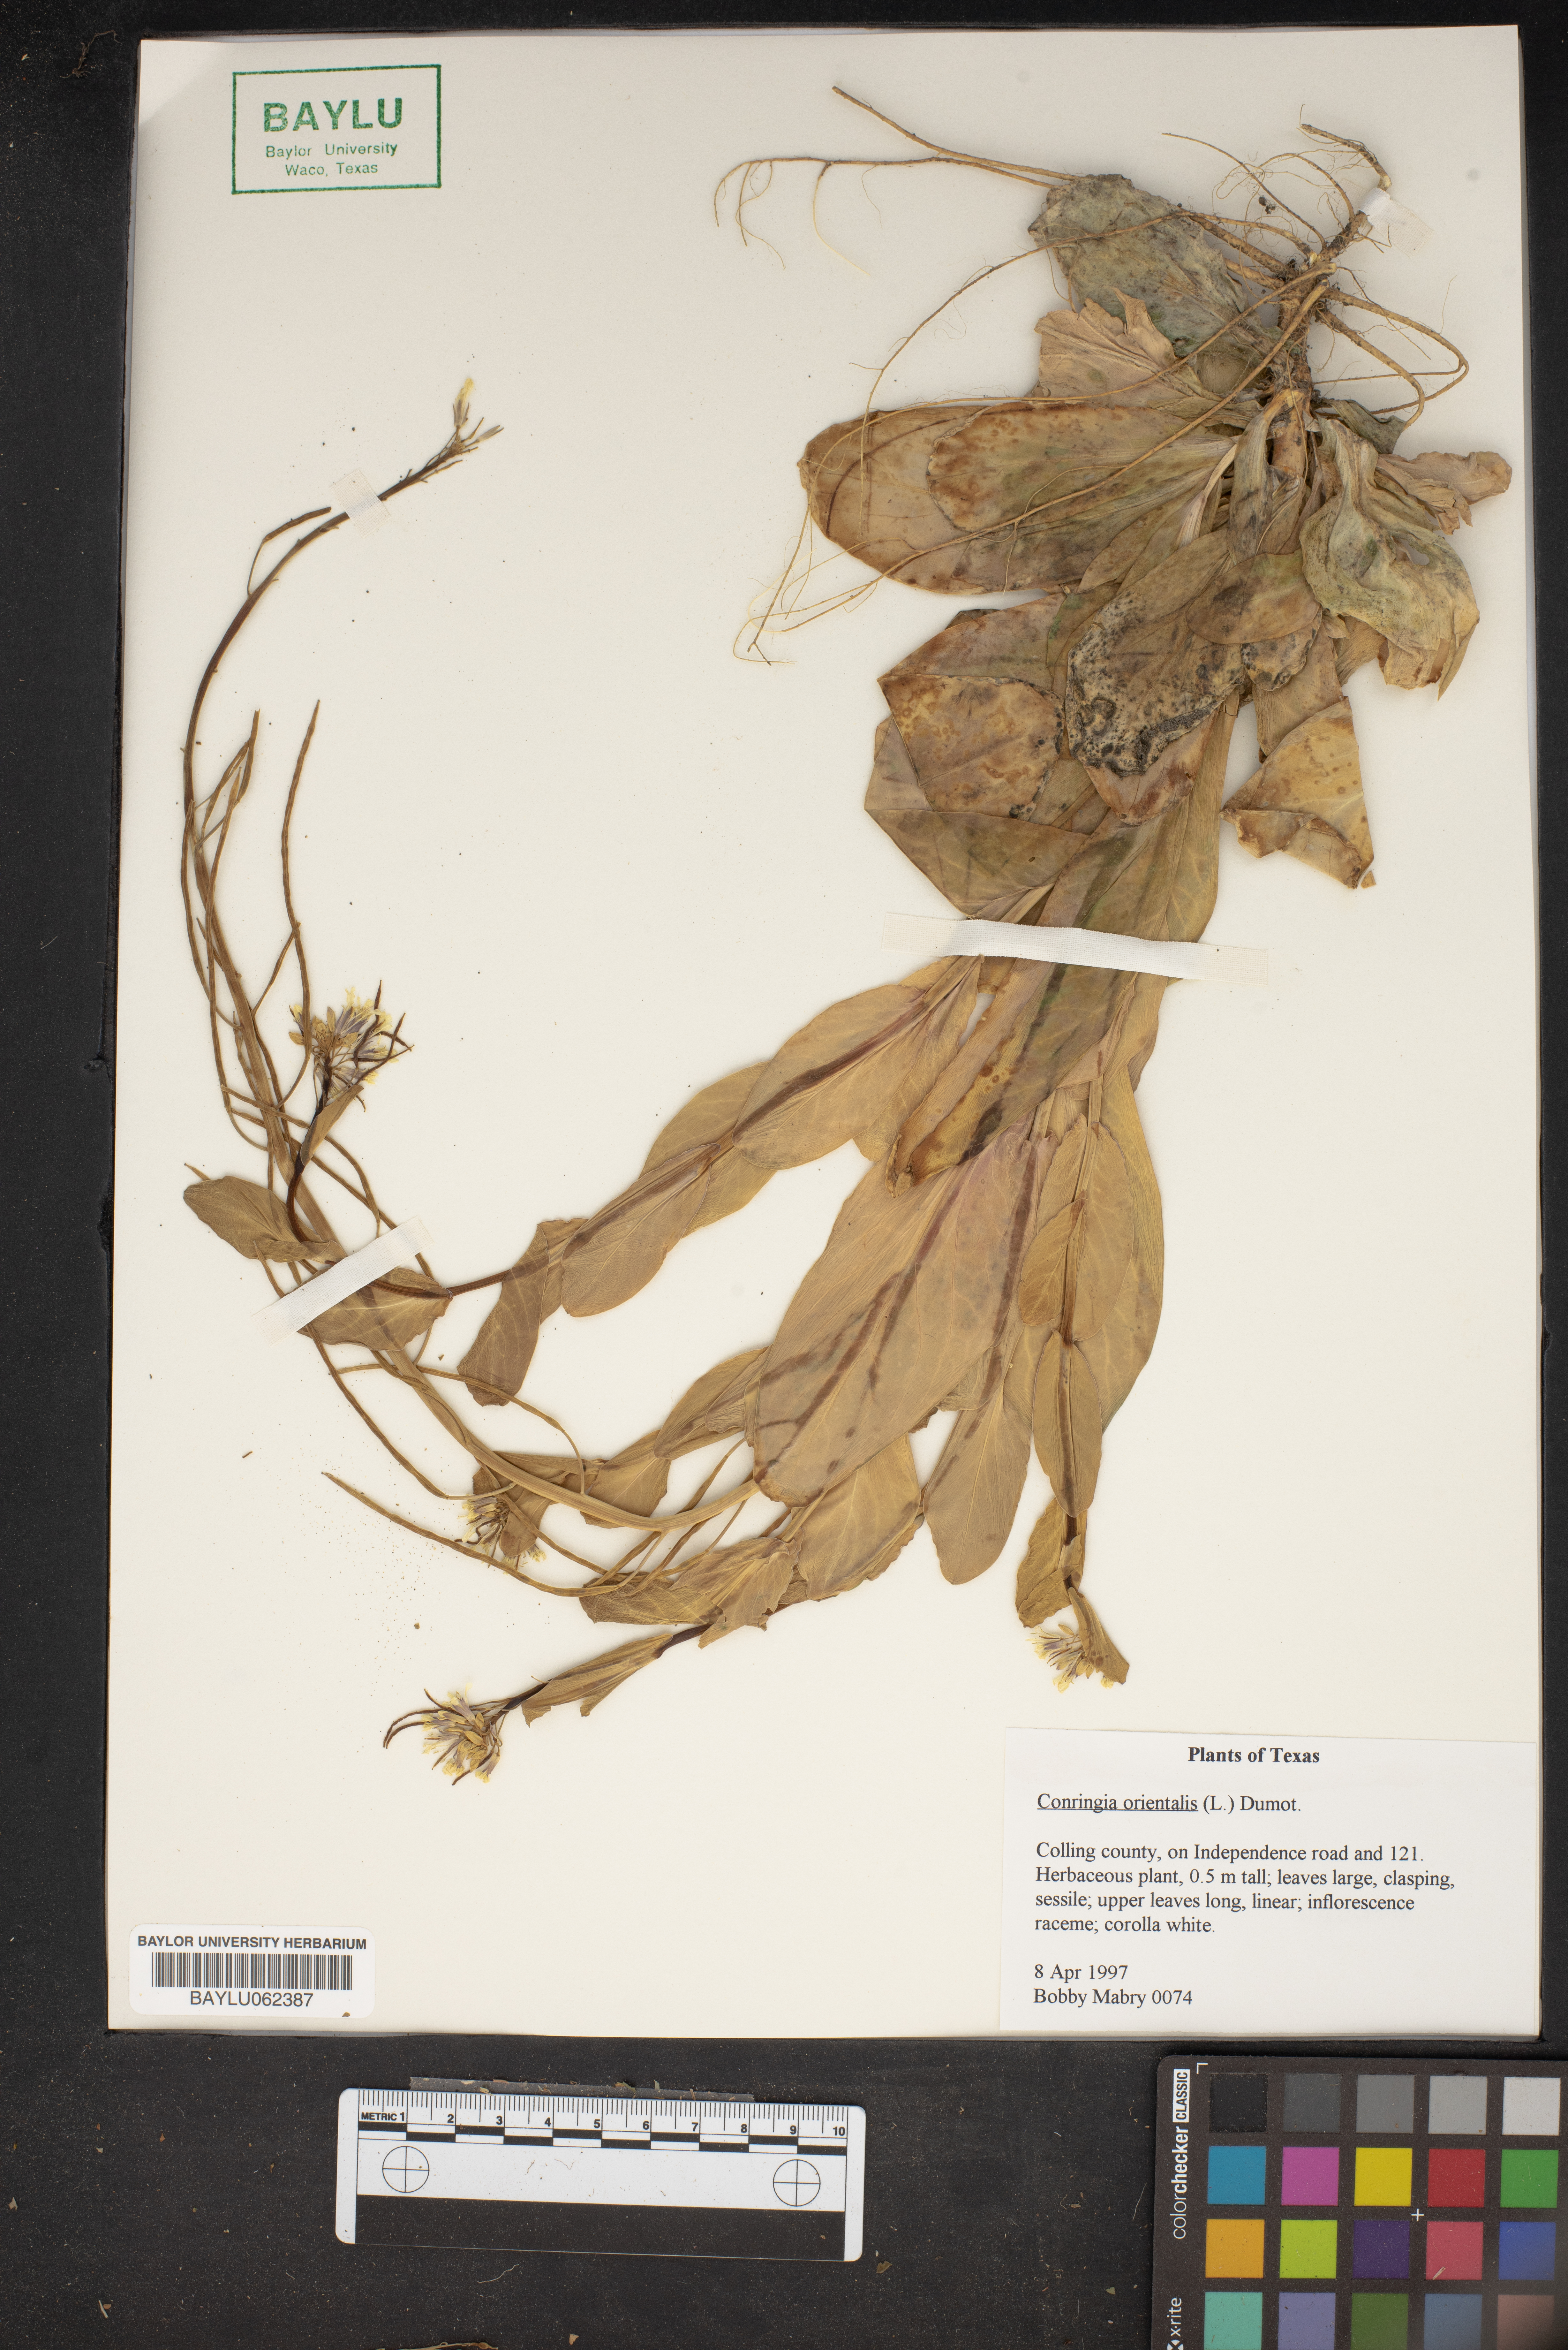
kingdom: Plantae
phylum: Tracheophyta
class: Magnoliopsida
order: Brassicales
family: Brassicaceae
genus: Conringia
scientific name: Conringia orientalis
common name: Hare's ear mustard
